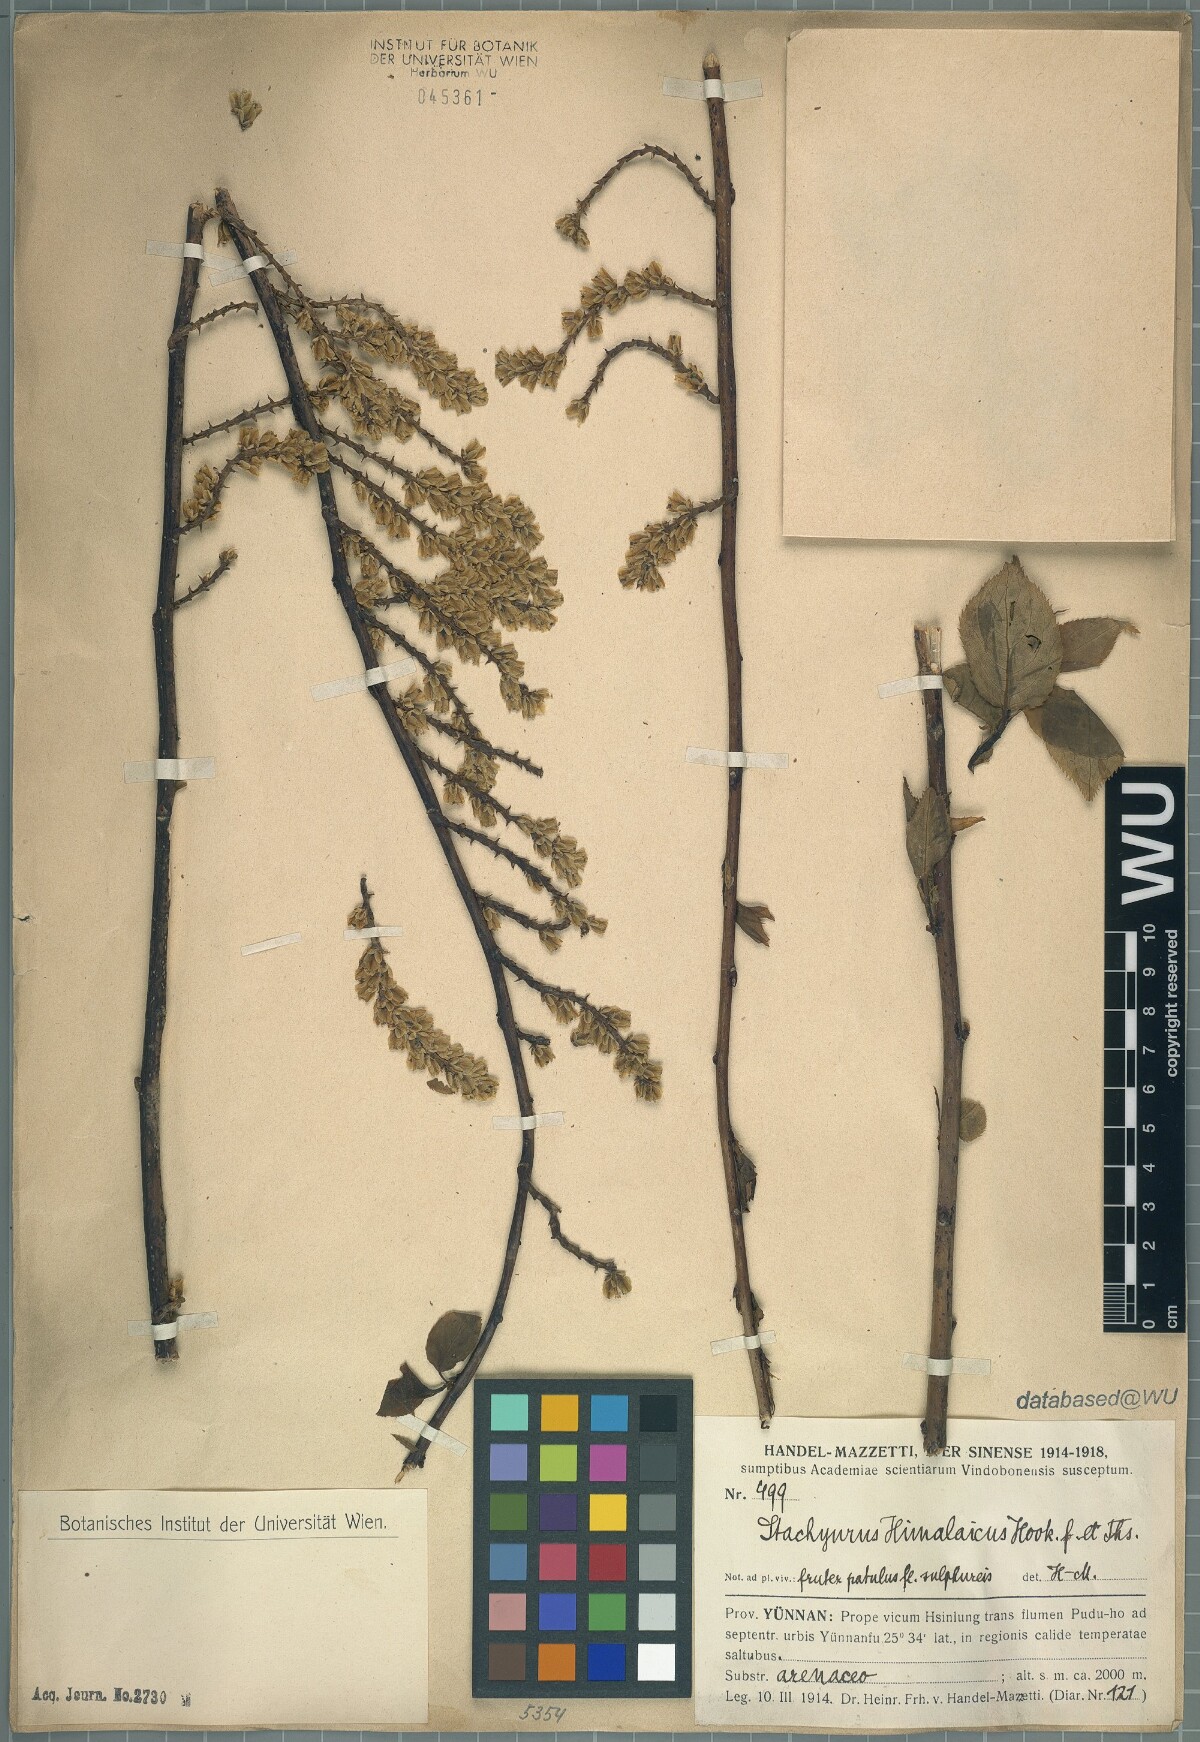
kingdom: Plantae
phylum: Tracheophyta
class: Magnoliopsida
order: Crossosomatales
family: Stachyuraceae
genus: Stachyurus
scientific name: Stachyurus himalaicus
